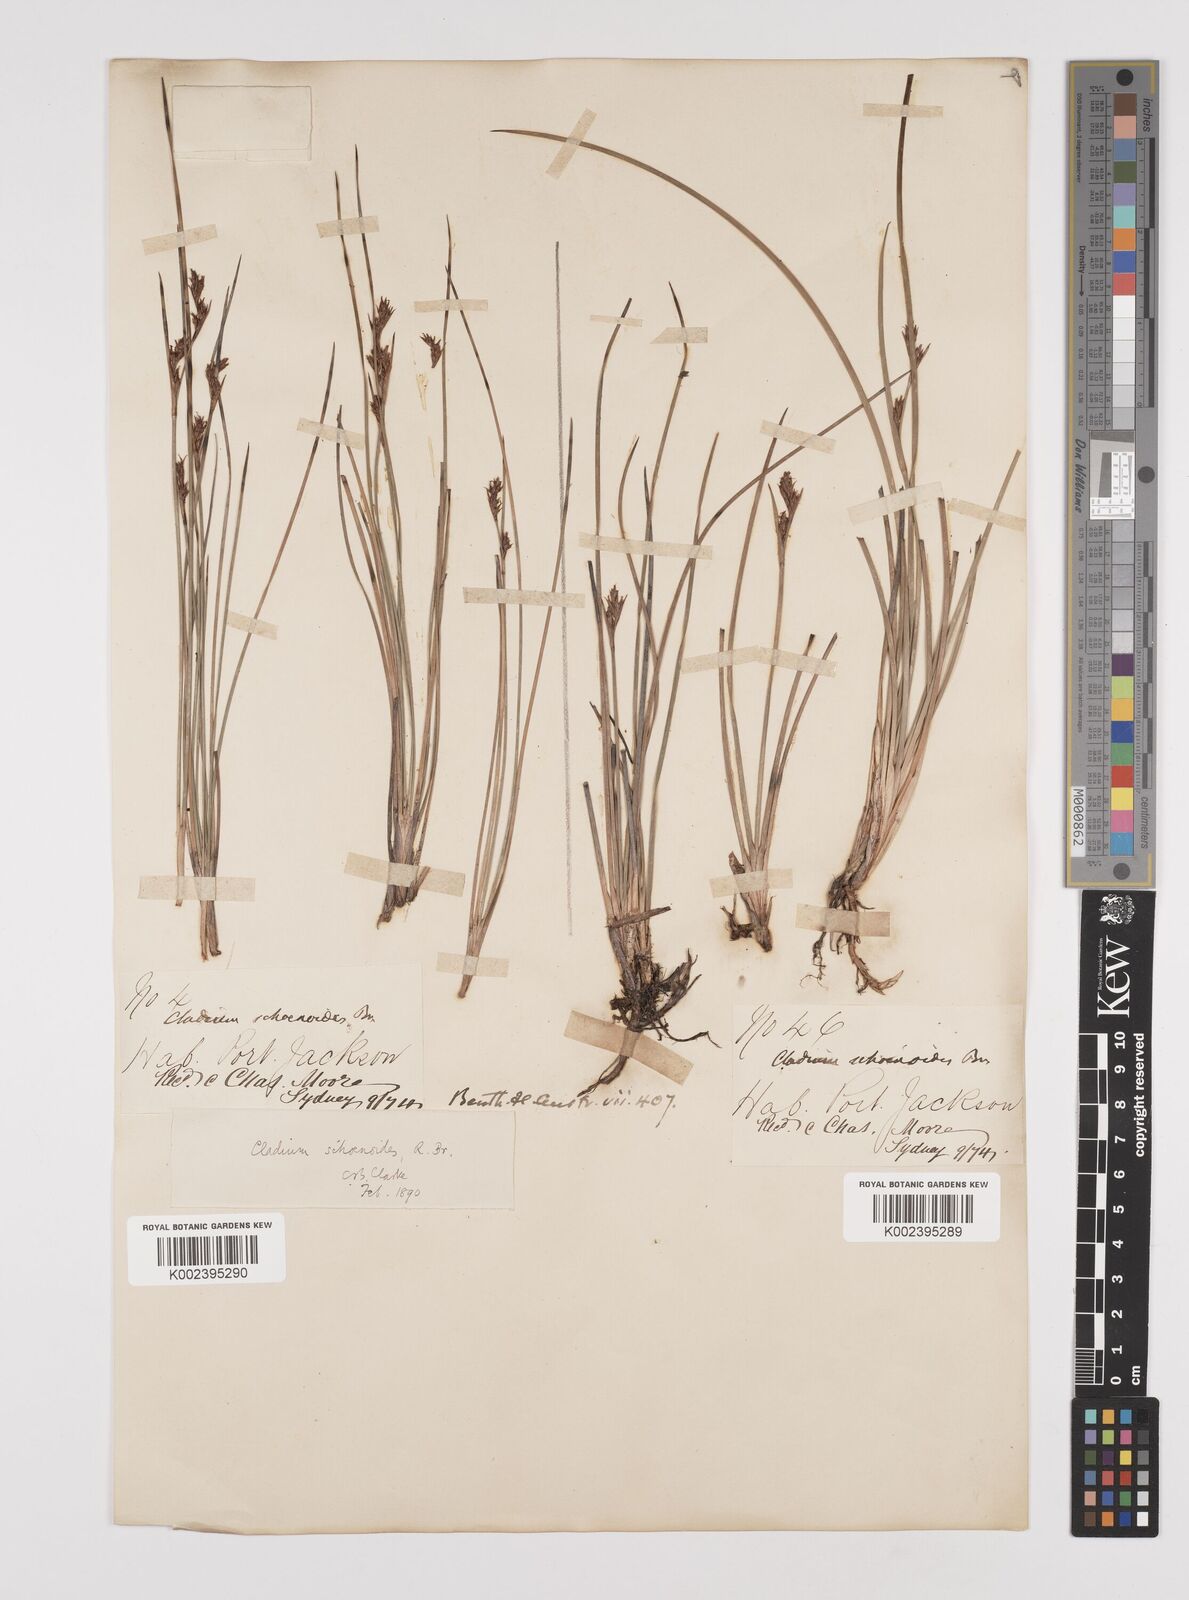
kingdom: Plantae
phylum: Tracheophyta
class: Liliopsida
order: Poales
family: Cyperaceae
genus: Machaerina
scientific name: Machaerina acuta
